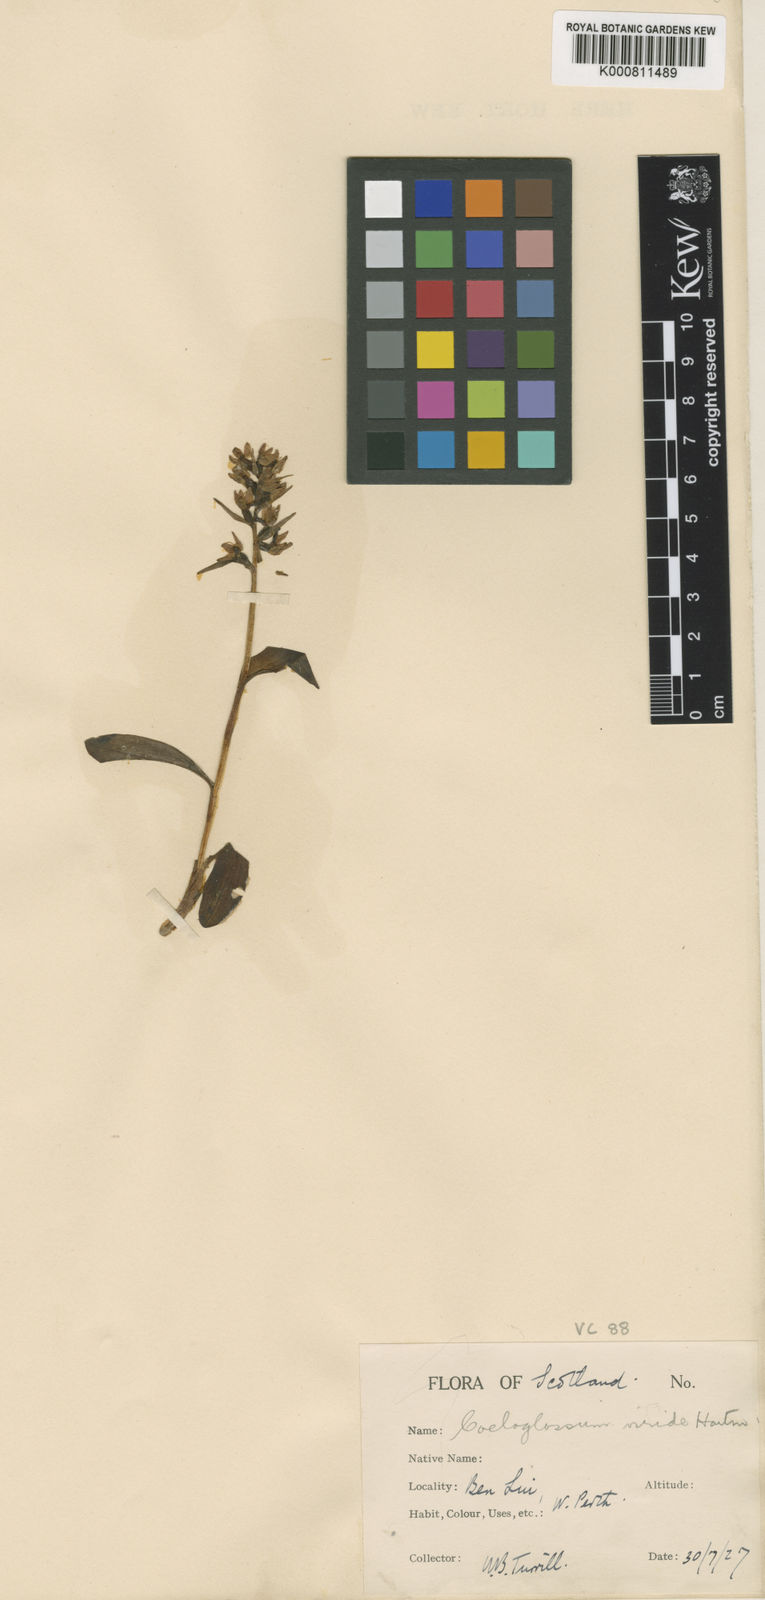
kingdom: Plantae
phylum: Tracheophyta
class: Liliopsida
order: Asparagales
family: Orchidaceae
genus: Dactylorhiza
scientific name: Dactylorhiza viridis
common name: Longbract frog orchid
